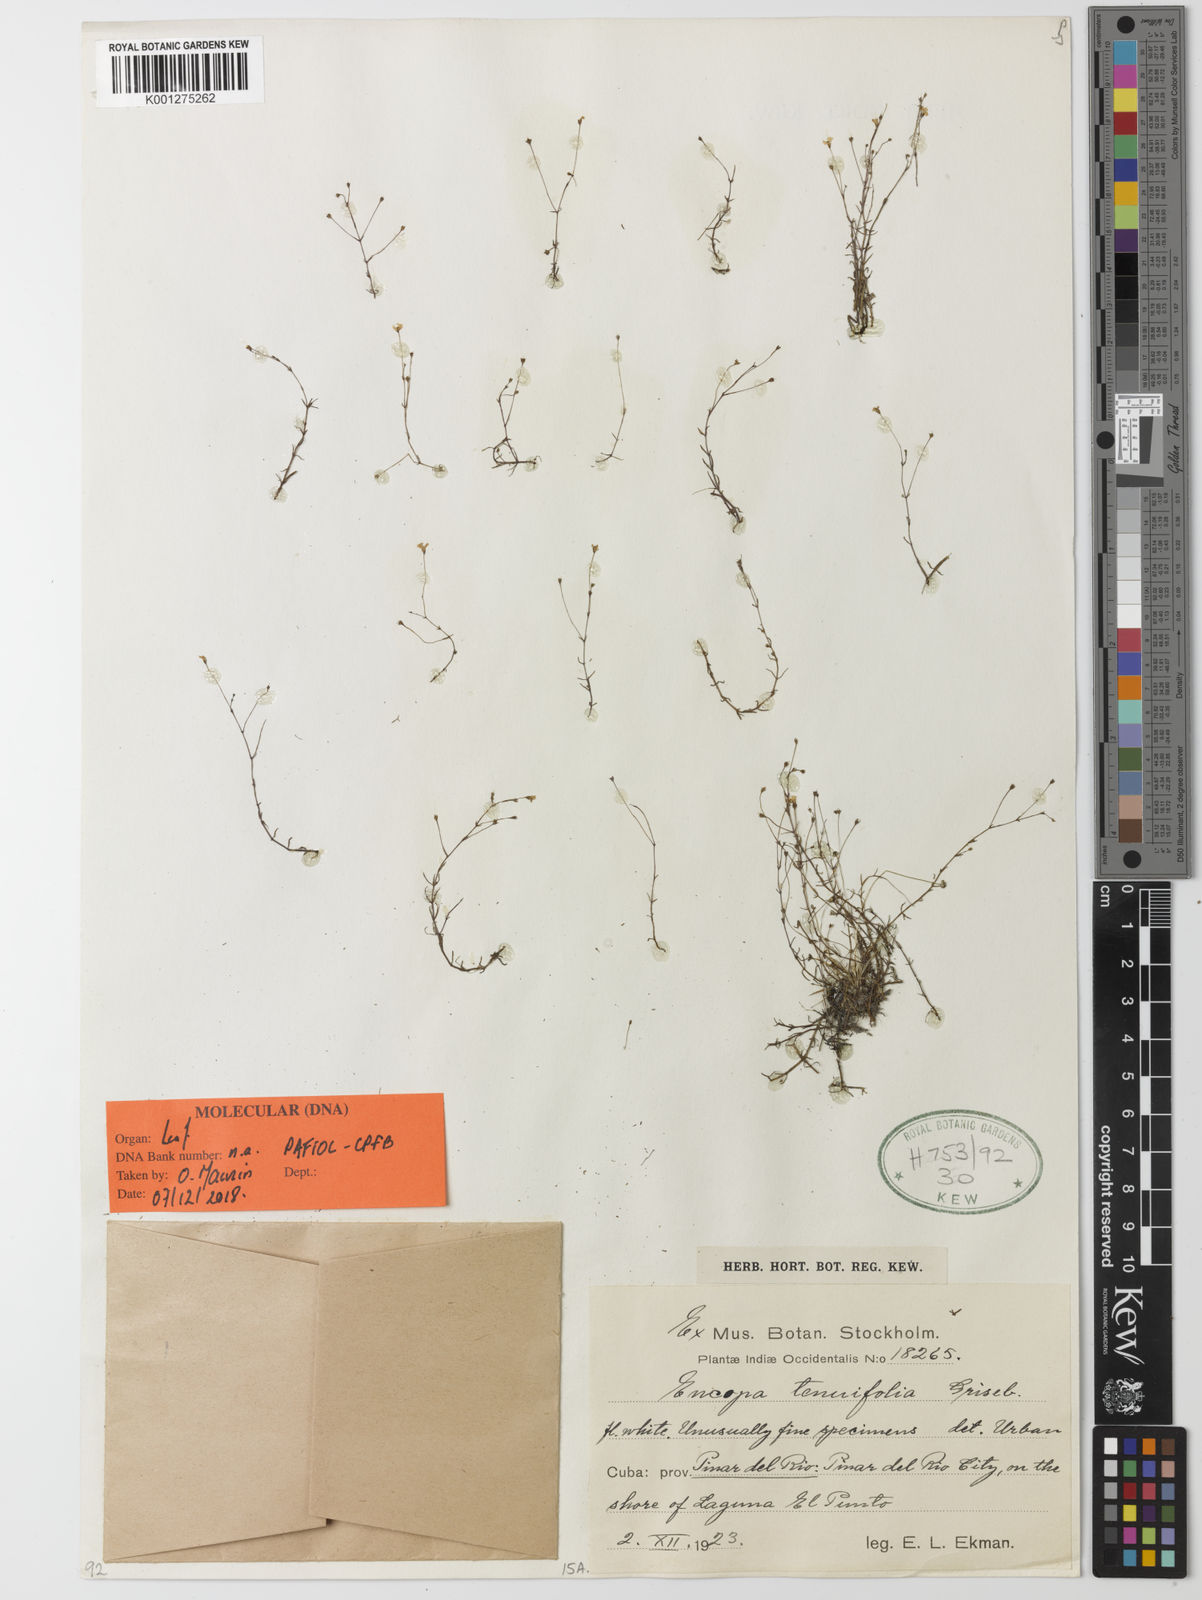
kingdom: Plantae
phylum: Tracheophyta
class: Magnoliopsida
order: Lamiales
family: Plantaginaceae
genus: Encopella
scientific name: Encopella tenuifolia
